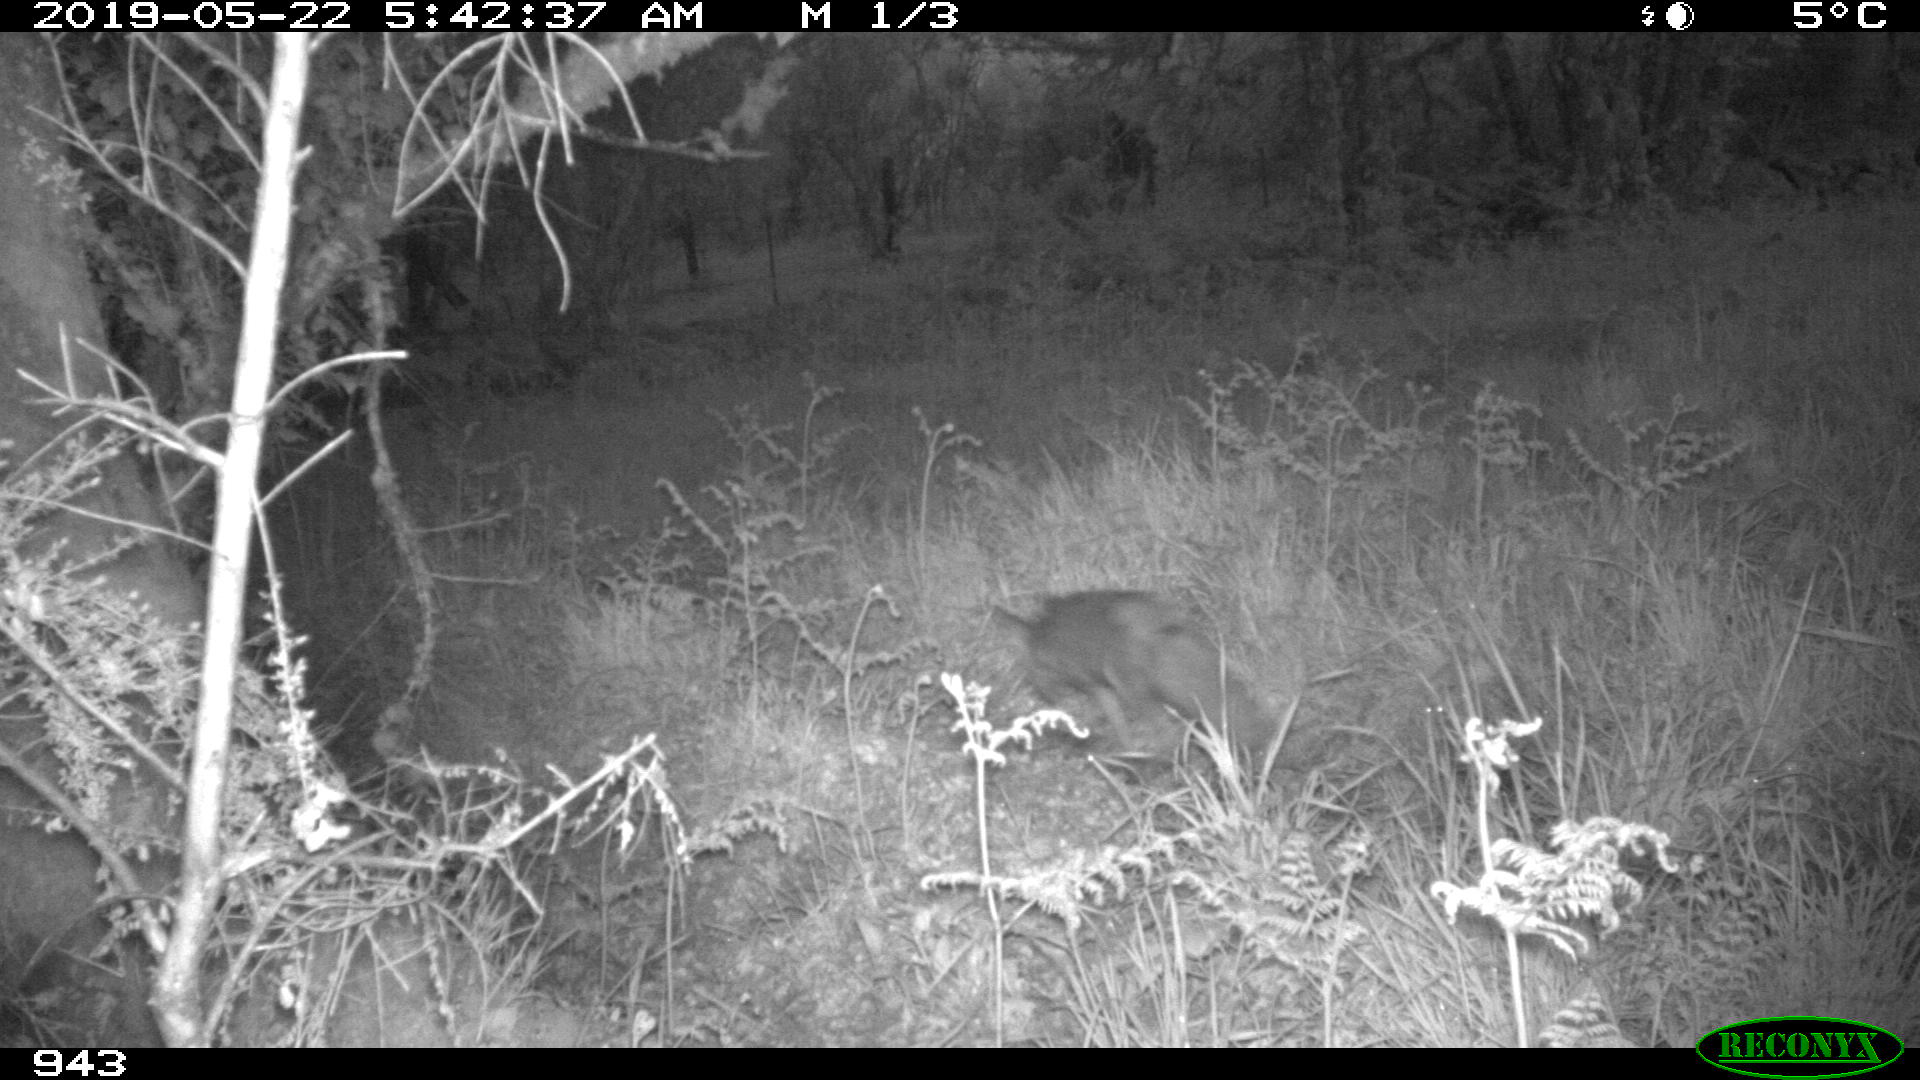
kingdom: Animalia
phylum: Chordata
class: Mammalia
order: Carnivora
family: Canidae
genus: Vulpes
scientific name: Vulpes vulpes
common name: Red fox
